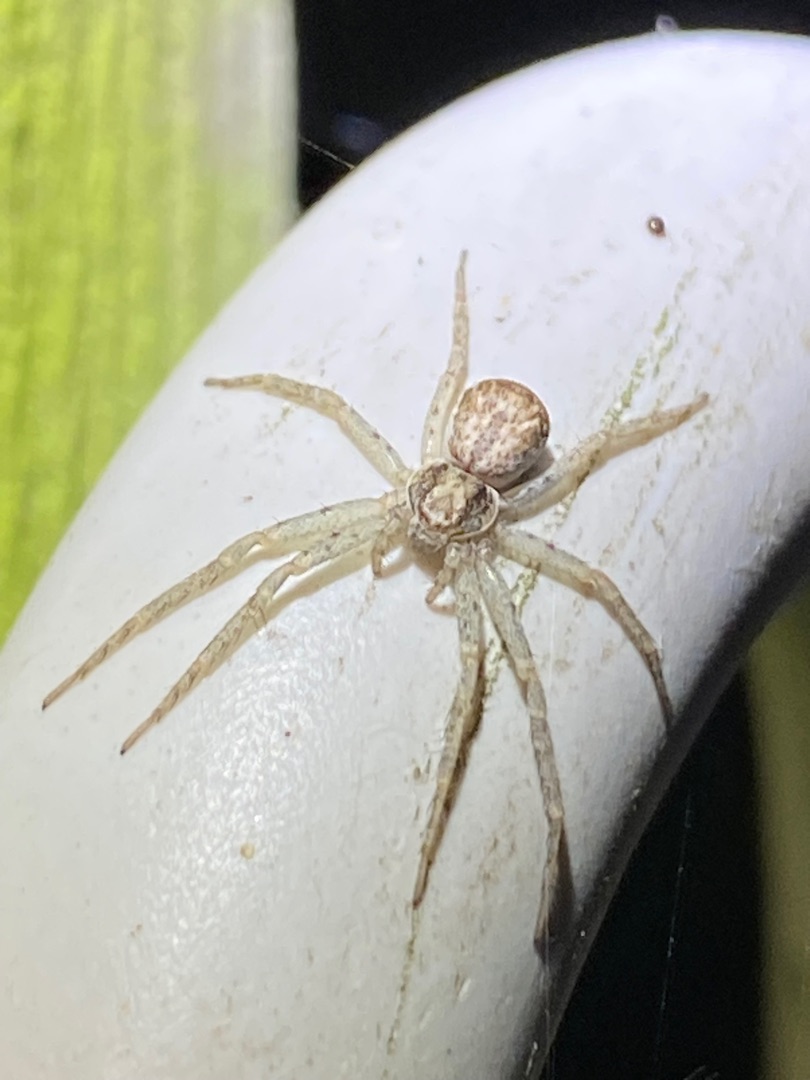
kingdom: Animalia
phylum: Arthropoda
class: Arachnida
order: Araneae
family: Philodromidae
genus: Philodromus
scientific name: Philodromus dispar
